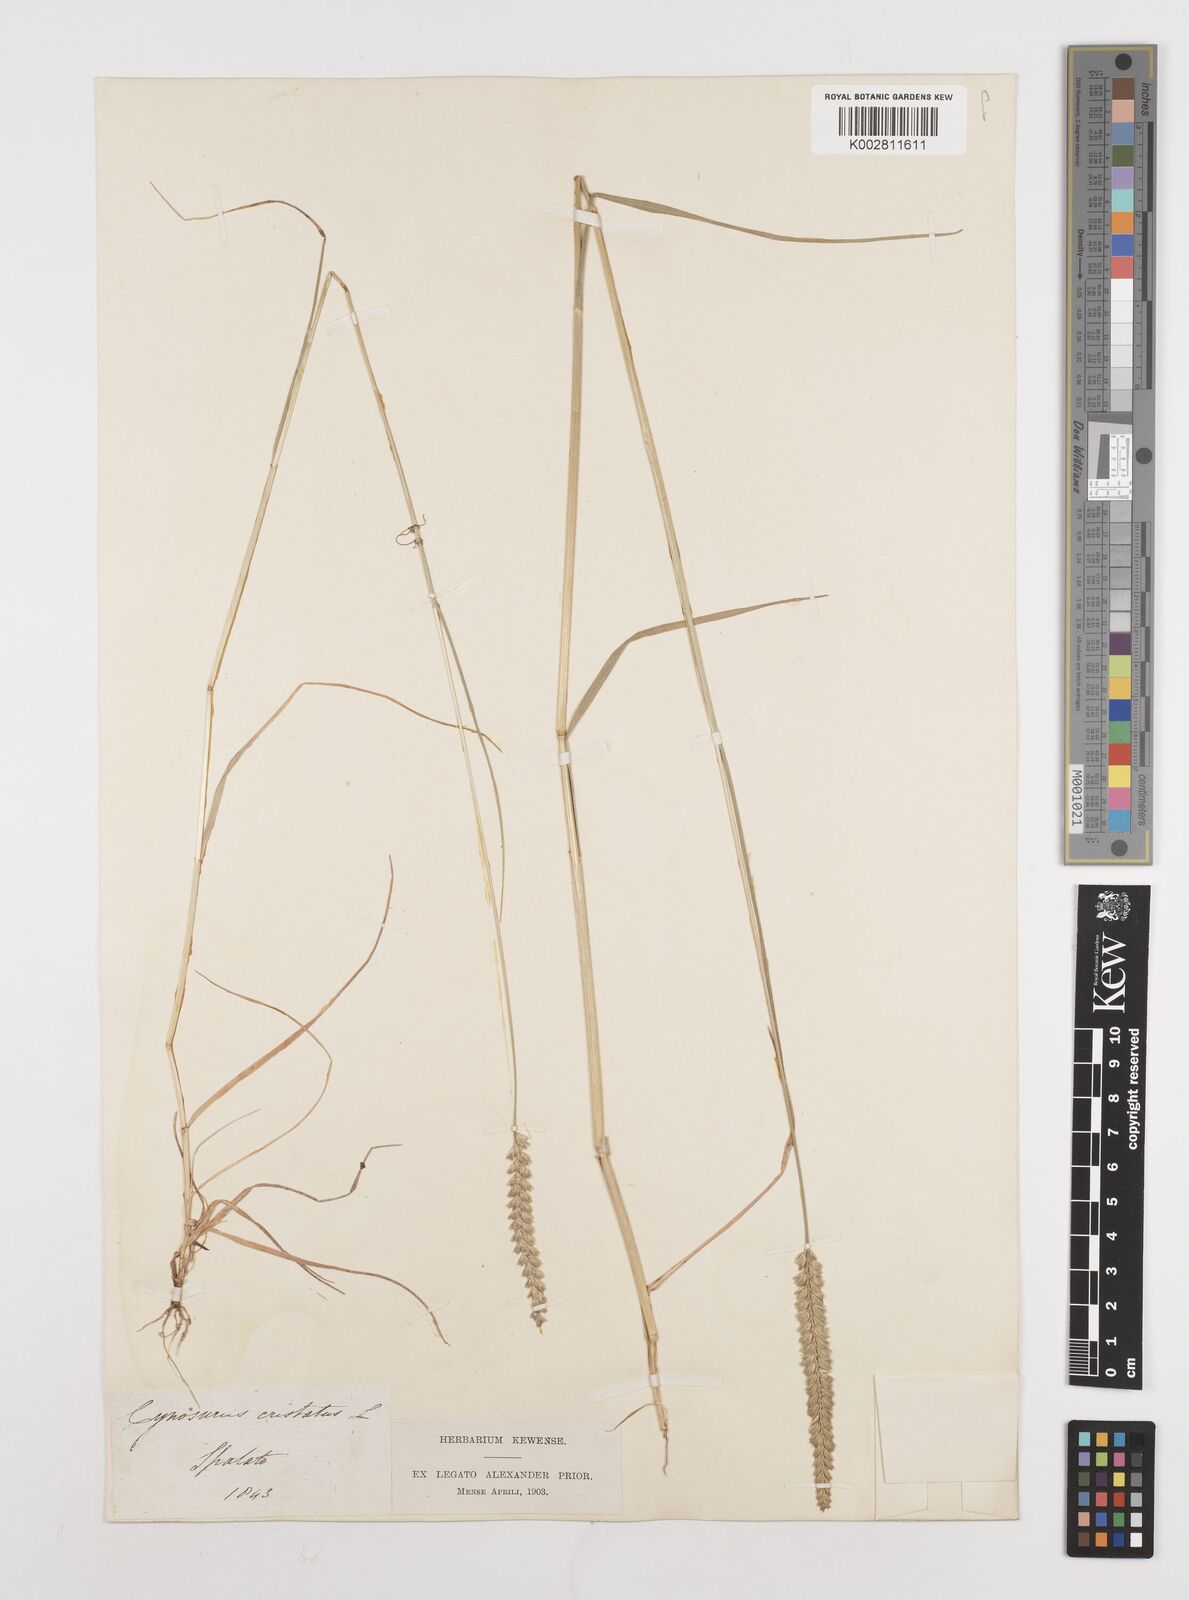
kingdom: Plantae
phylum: Tracheophyta
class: Liliopsida
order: Poales
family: Poaceae
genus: Cynosurus
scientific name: Cynosurus cristatus
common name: Crested dog's-tail
